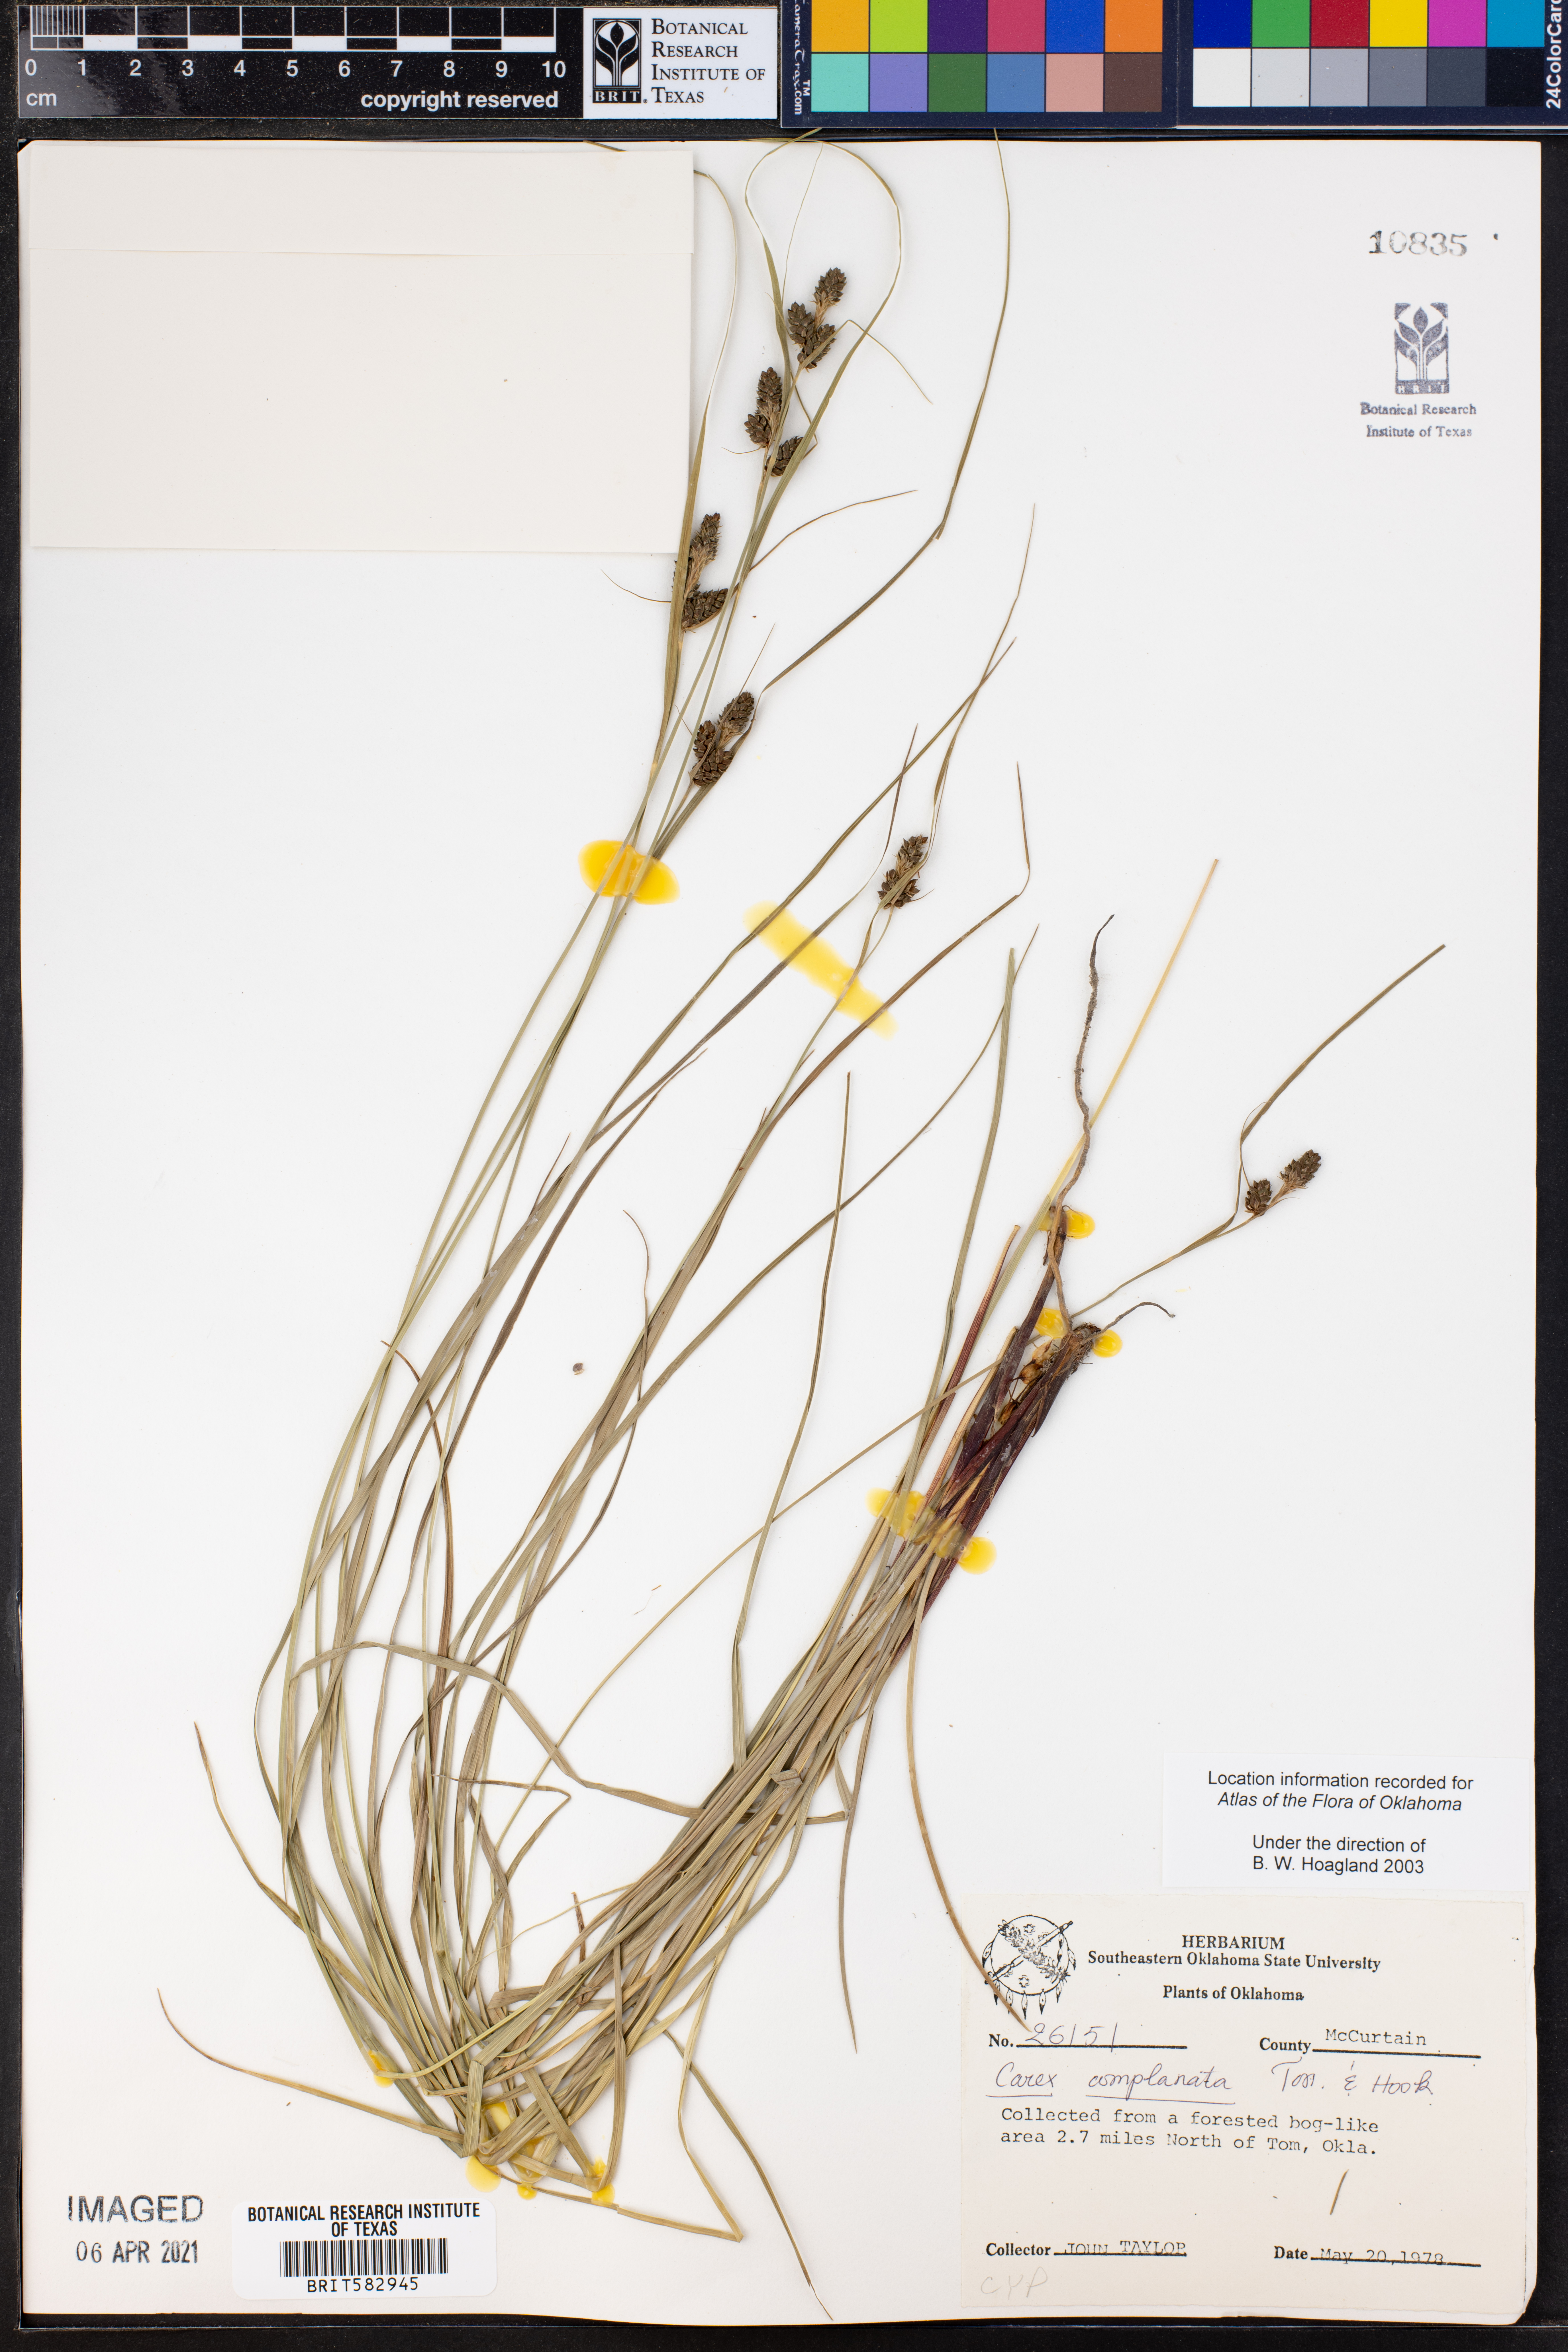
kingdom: Plantae
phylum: Tracheophyta
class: Liliopsida
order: Poales
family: Cyperaceae
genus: Carex
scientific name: Carex complanata
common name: Hirsute sedge
